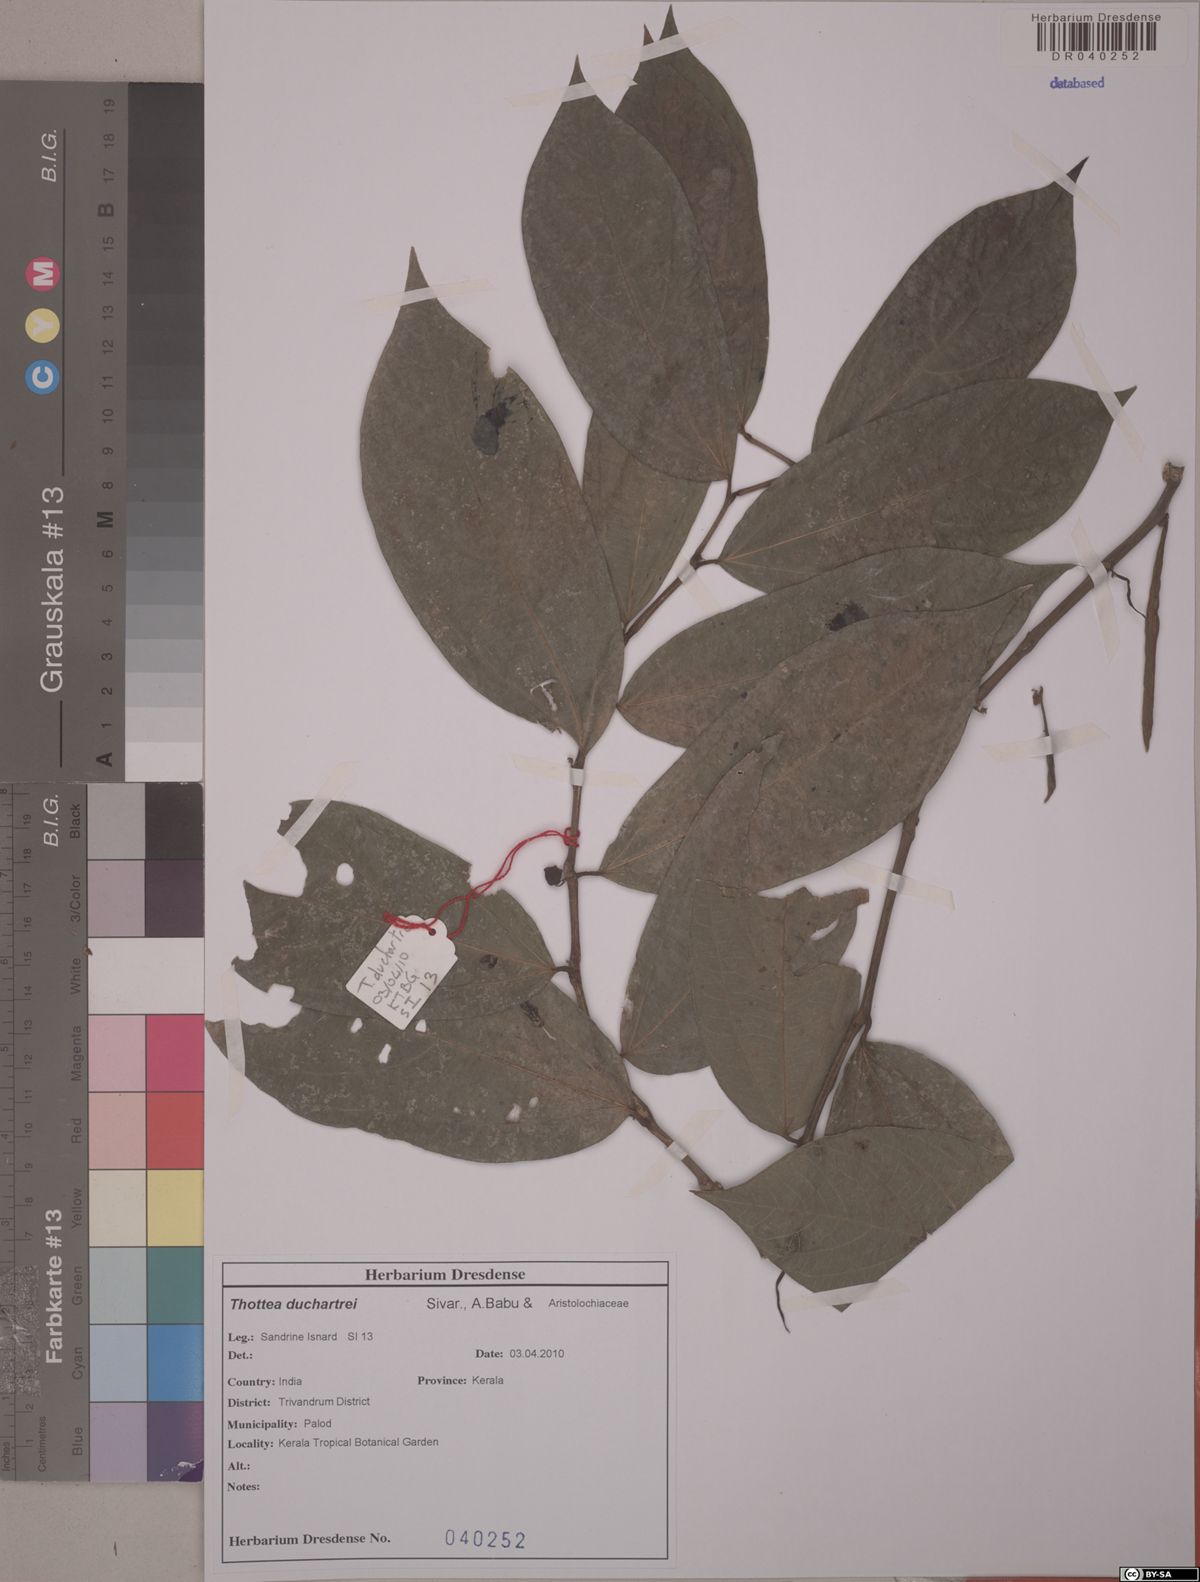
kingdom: Plantae
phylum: Tracheophyta
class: Magnoliopsida
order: Piperales
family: Aristolochiaceae
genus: Thottea
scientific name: Thottea duchartrei
